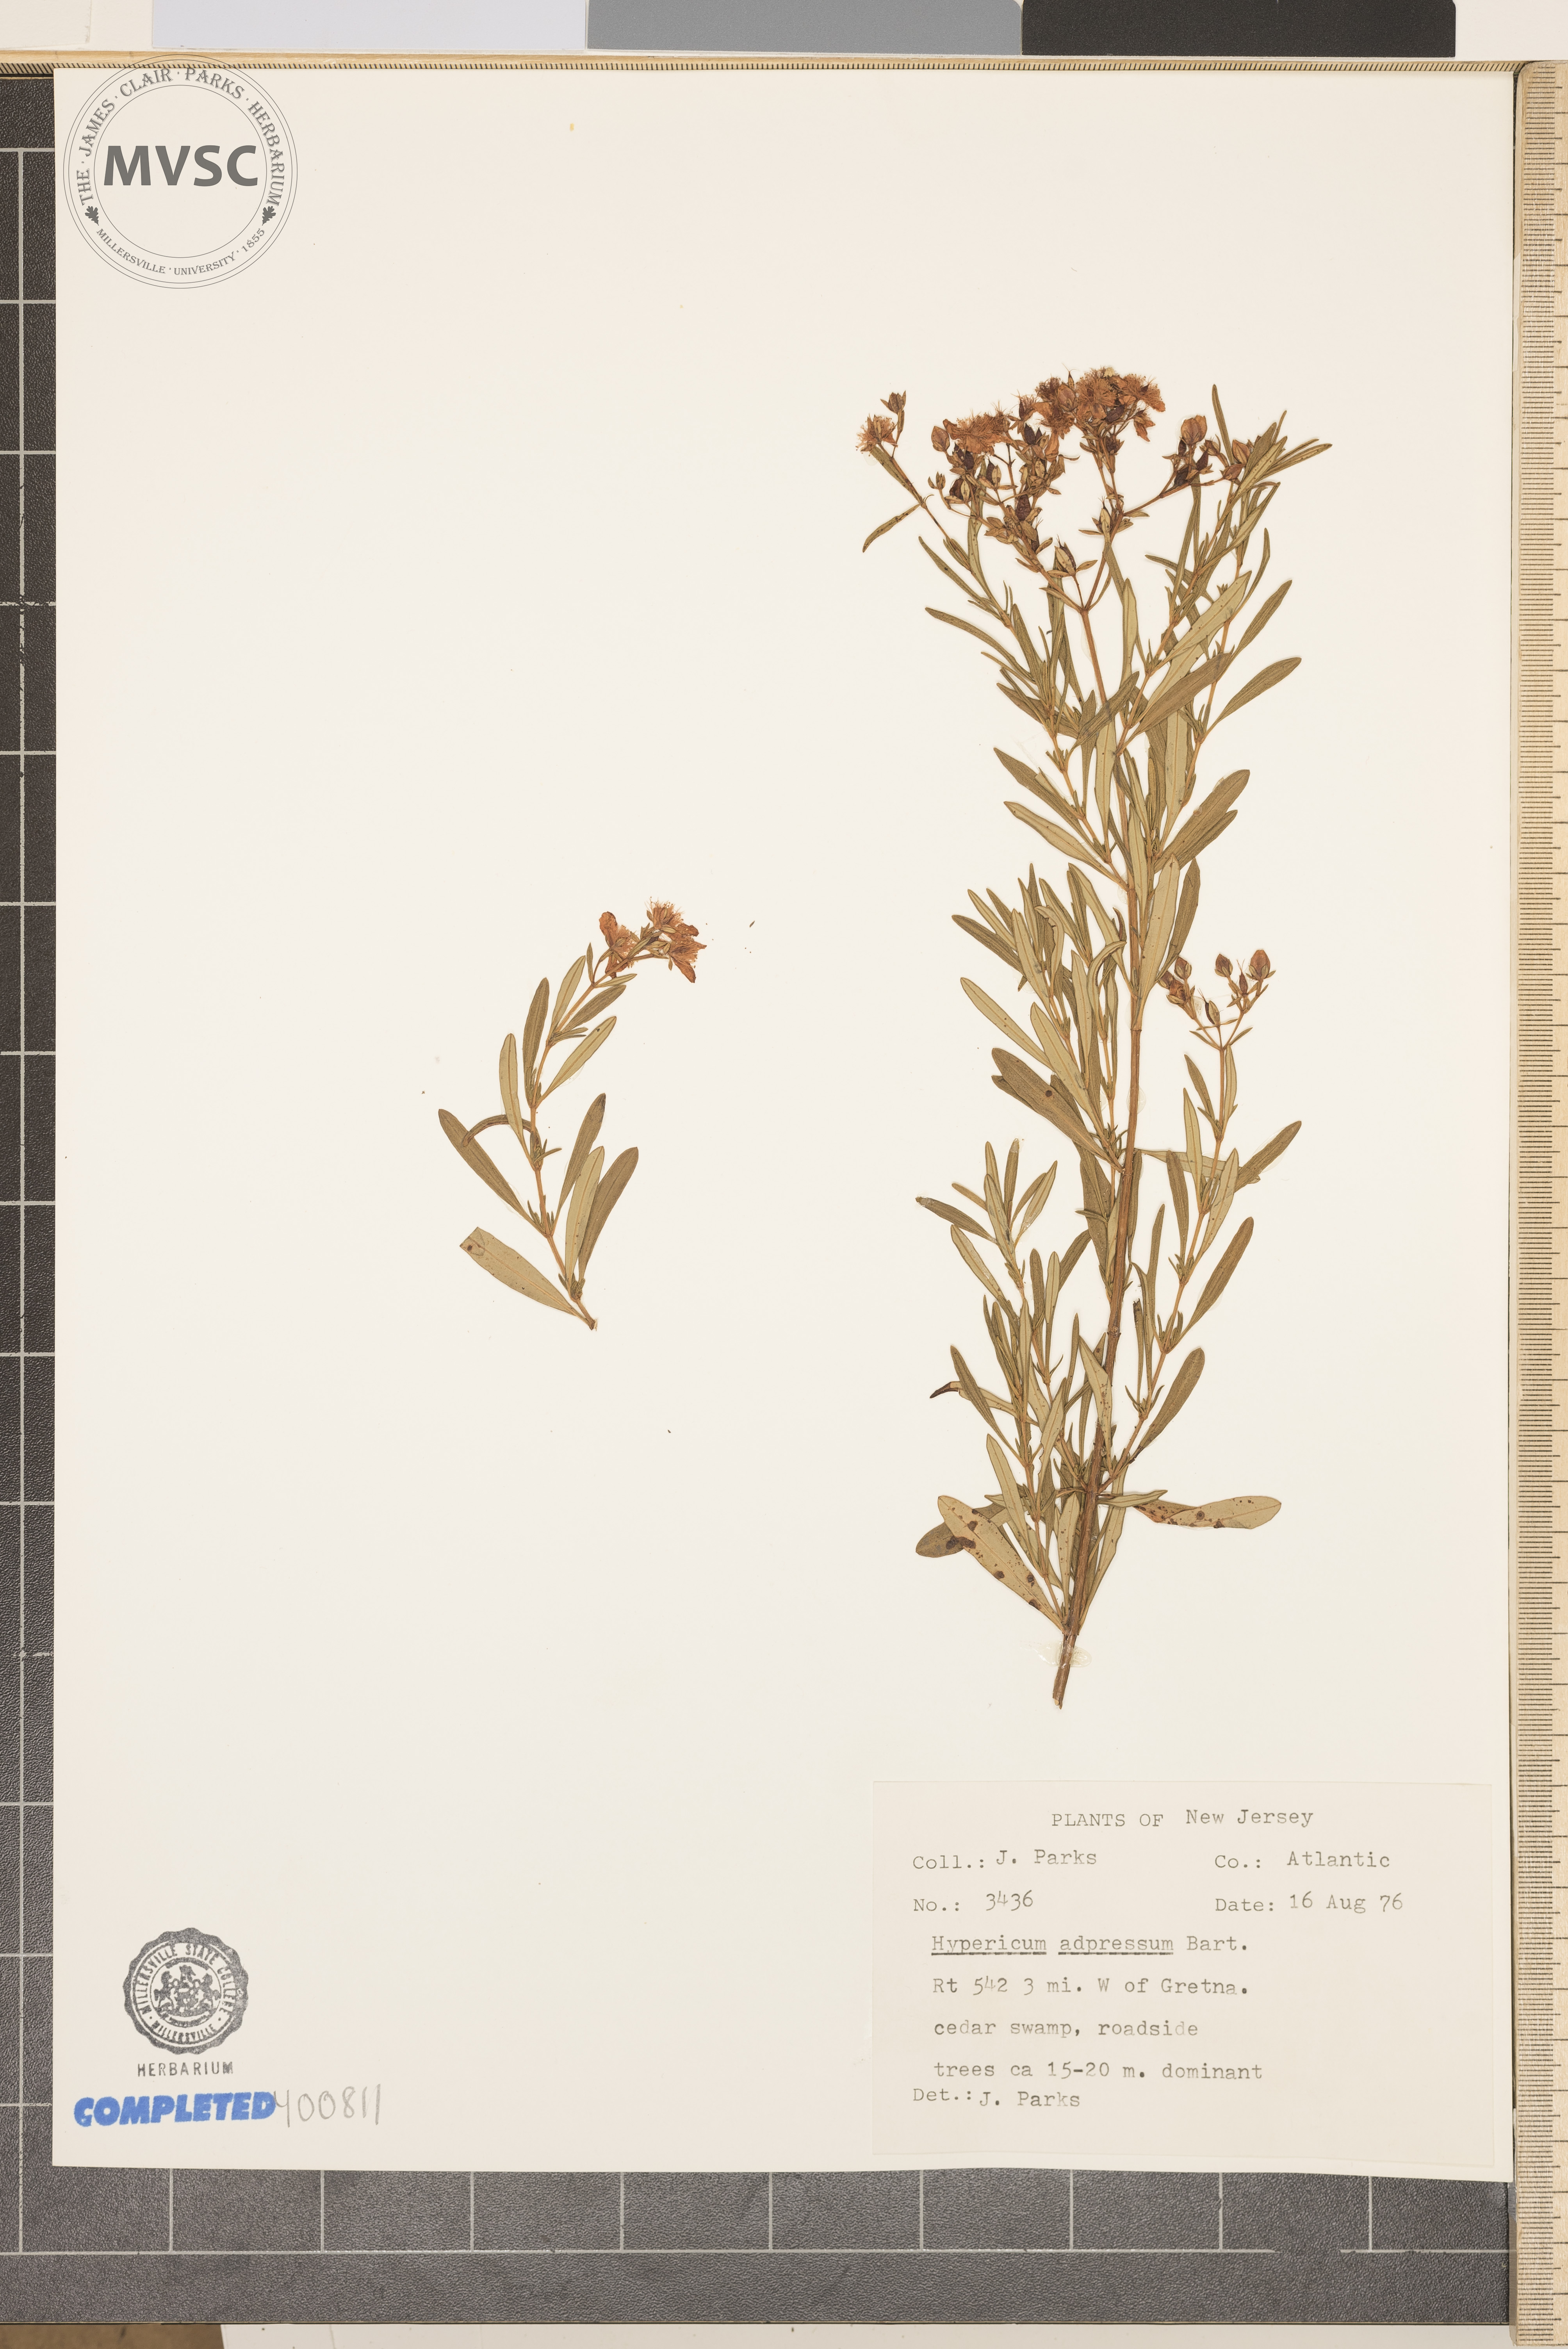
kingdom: Plantae
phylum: Tracheophyta
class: Magnoliopsida
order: Malpighiales
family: Hypericaceae
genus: Hypericum
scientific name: Hypericum adpressum
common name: Creeping St. John's-wort
